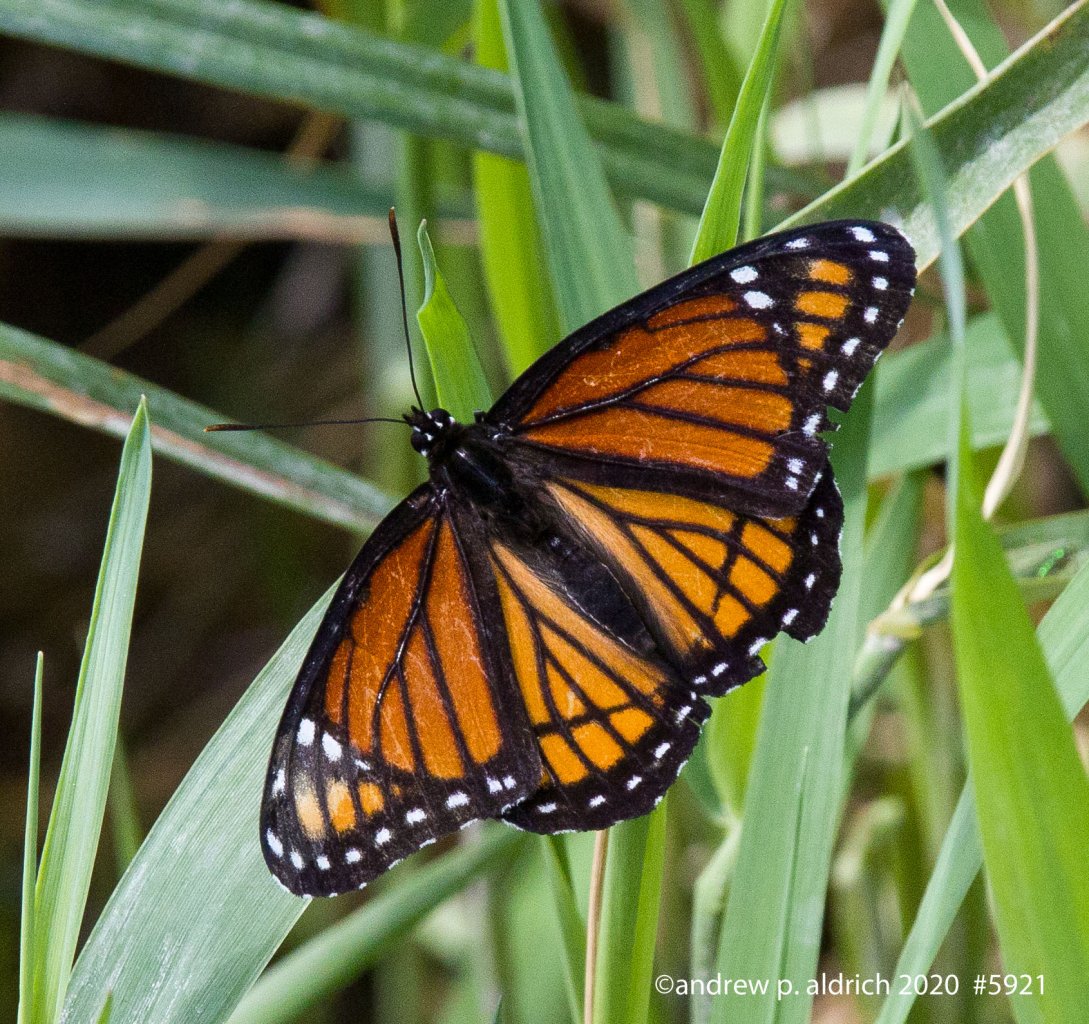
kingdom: Animalia
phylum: Arthropoda
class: Insecta
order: Lepidoptera
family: Nymphalidae
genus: Limenitis
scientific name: Limenitis archippus
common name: Viceroy
